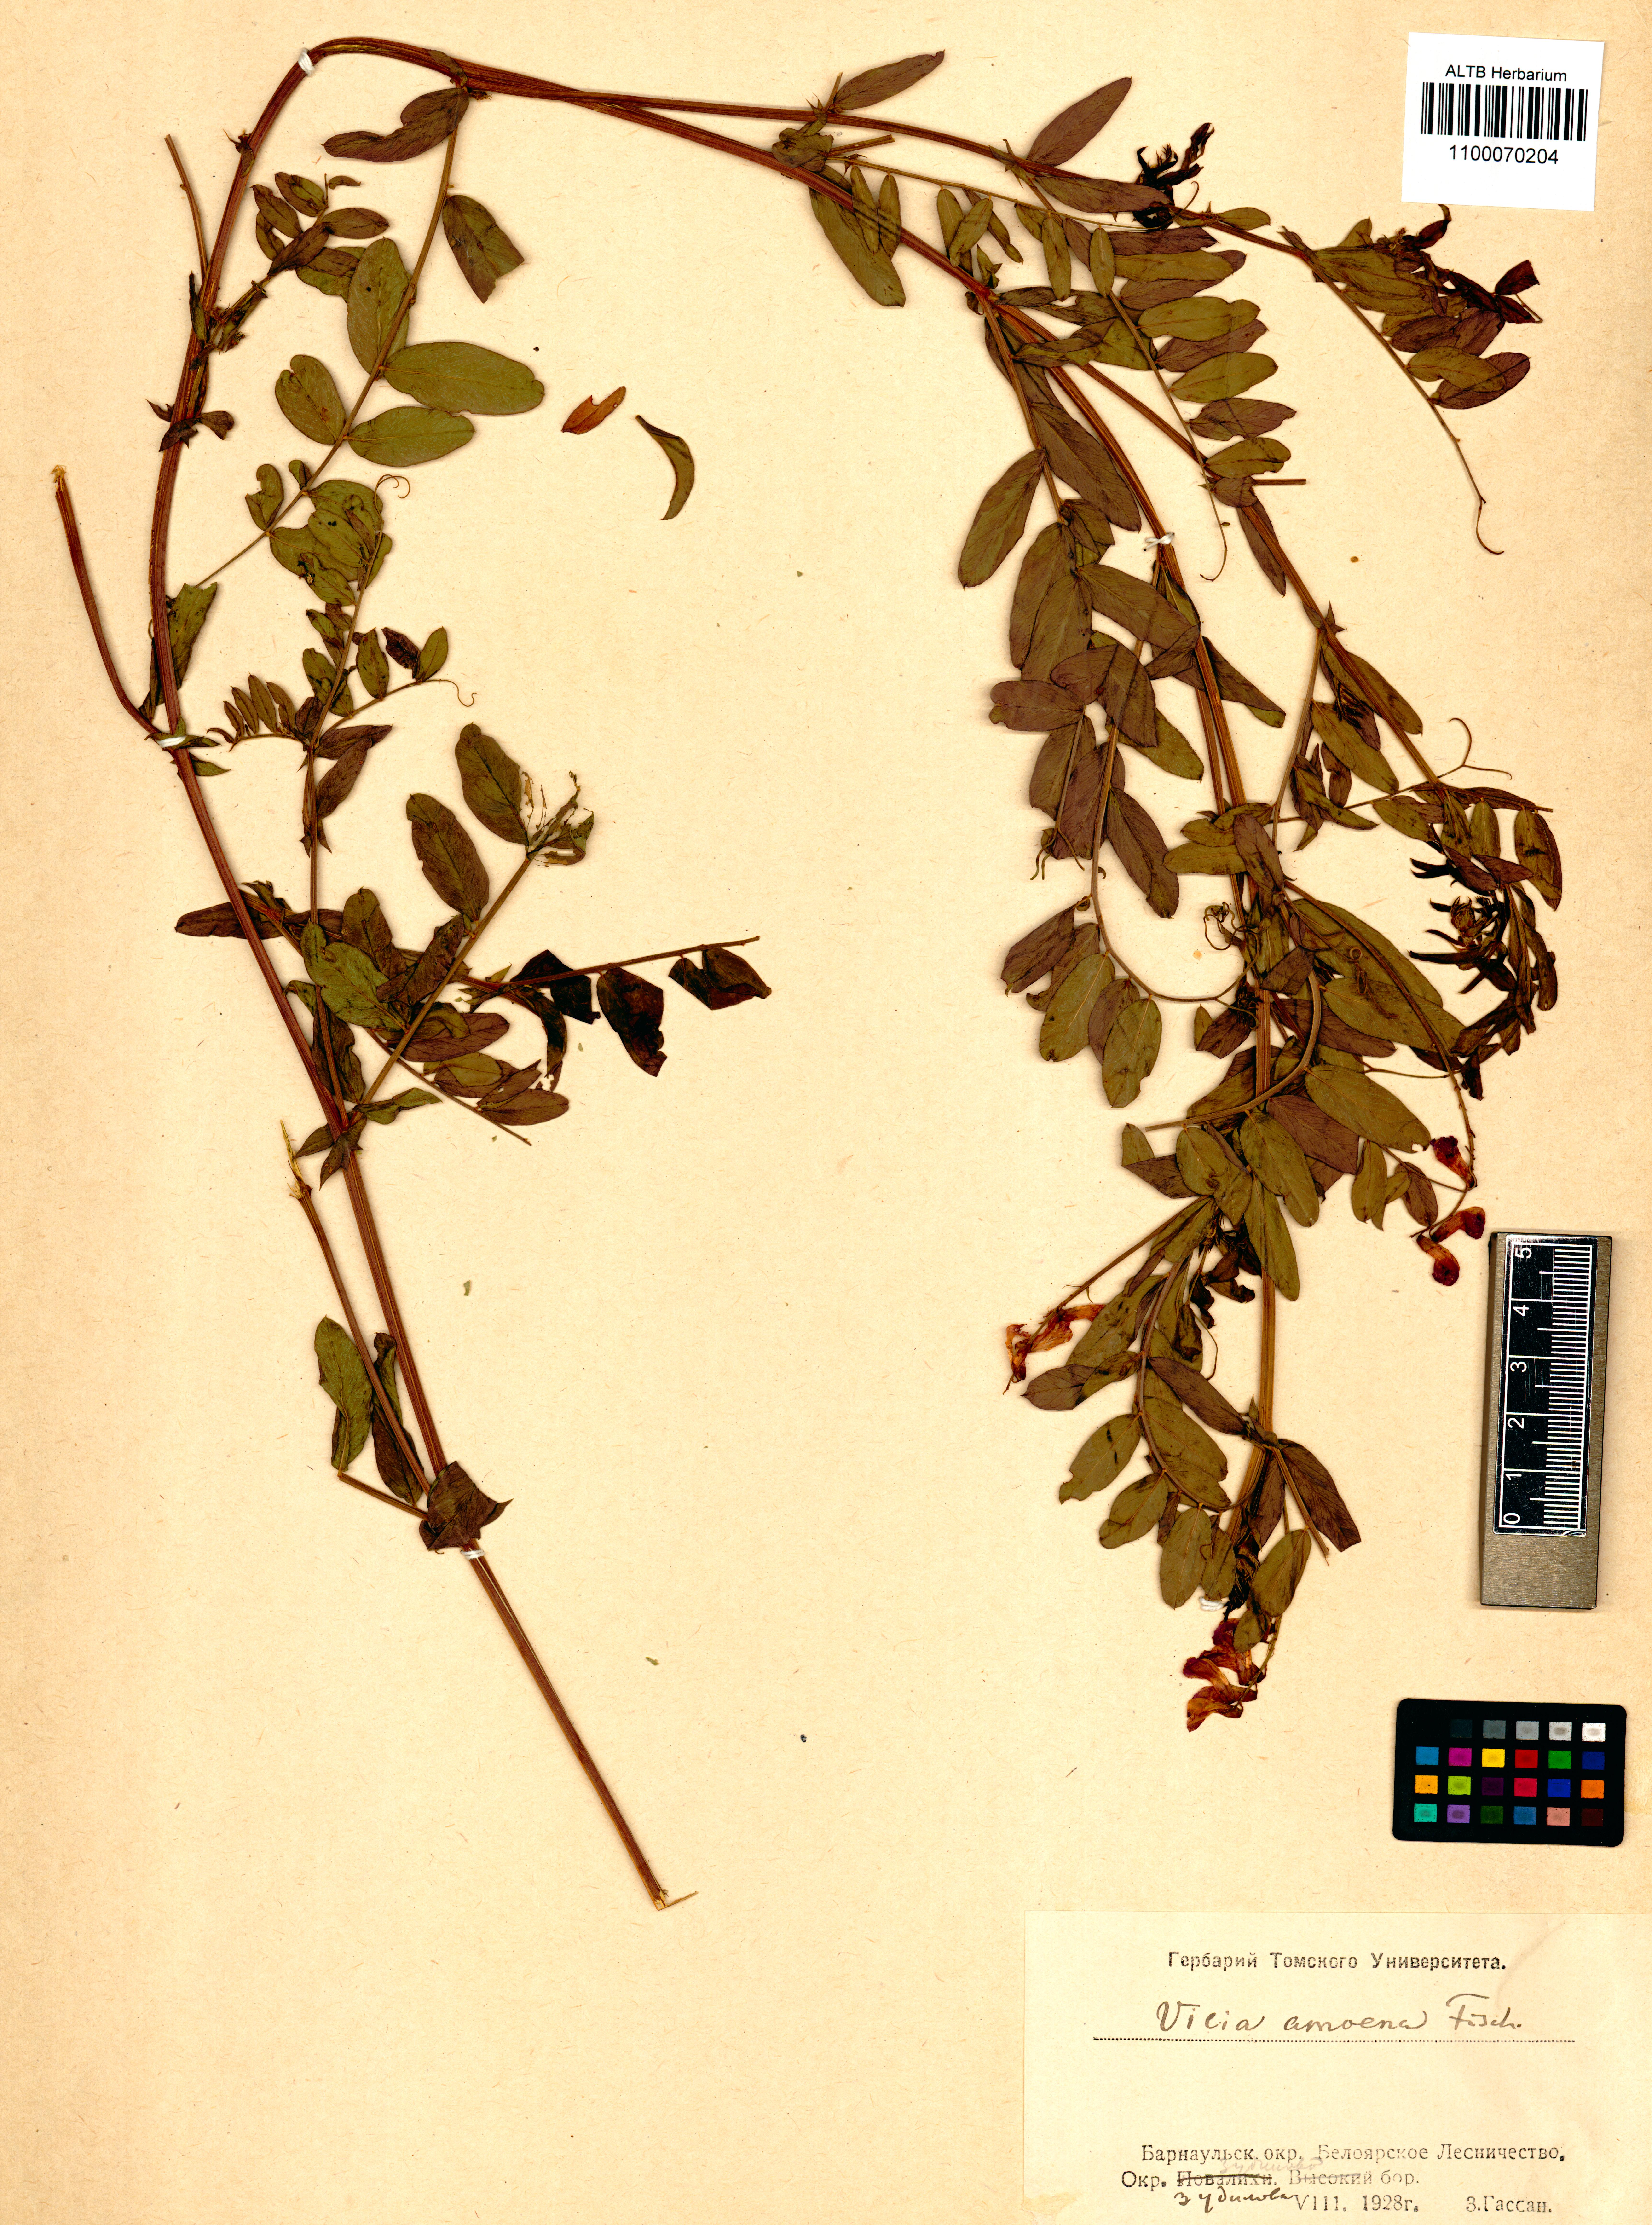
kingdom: Plantae
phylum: Tracheophyta
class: Magnoliopsida
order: Fabales
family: Fabaceae
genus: Vicia
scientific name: Vicia amoena
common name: Cheder ebs
